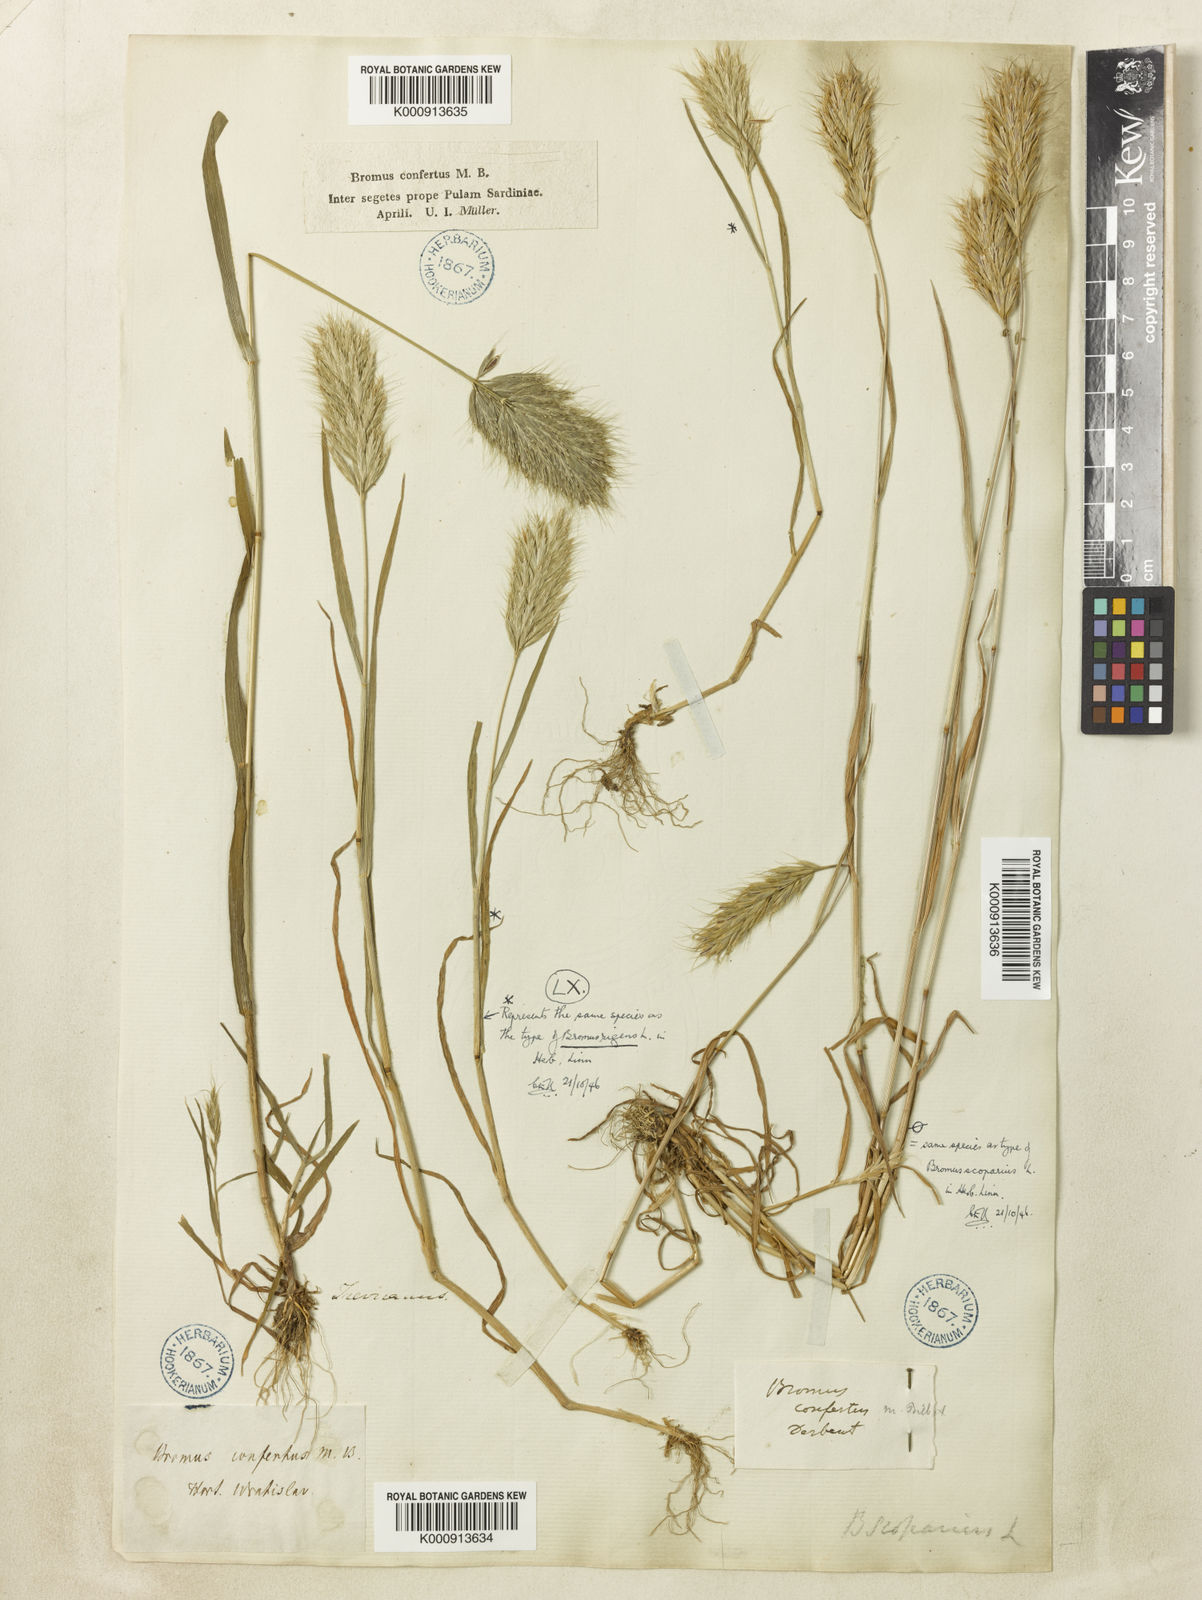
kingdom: Plantae
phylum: Tracheophyta
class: Liliopsida
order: Poales
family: Poaceae
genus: Bromus
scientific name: Bromus scoparius
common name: Broom brome
